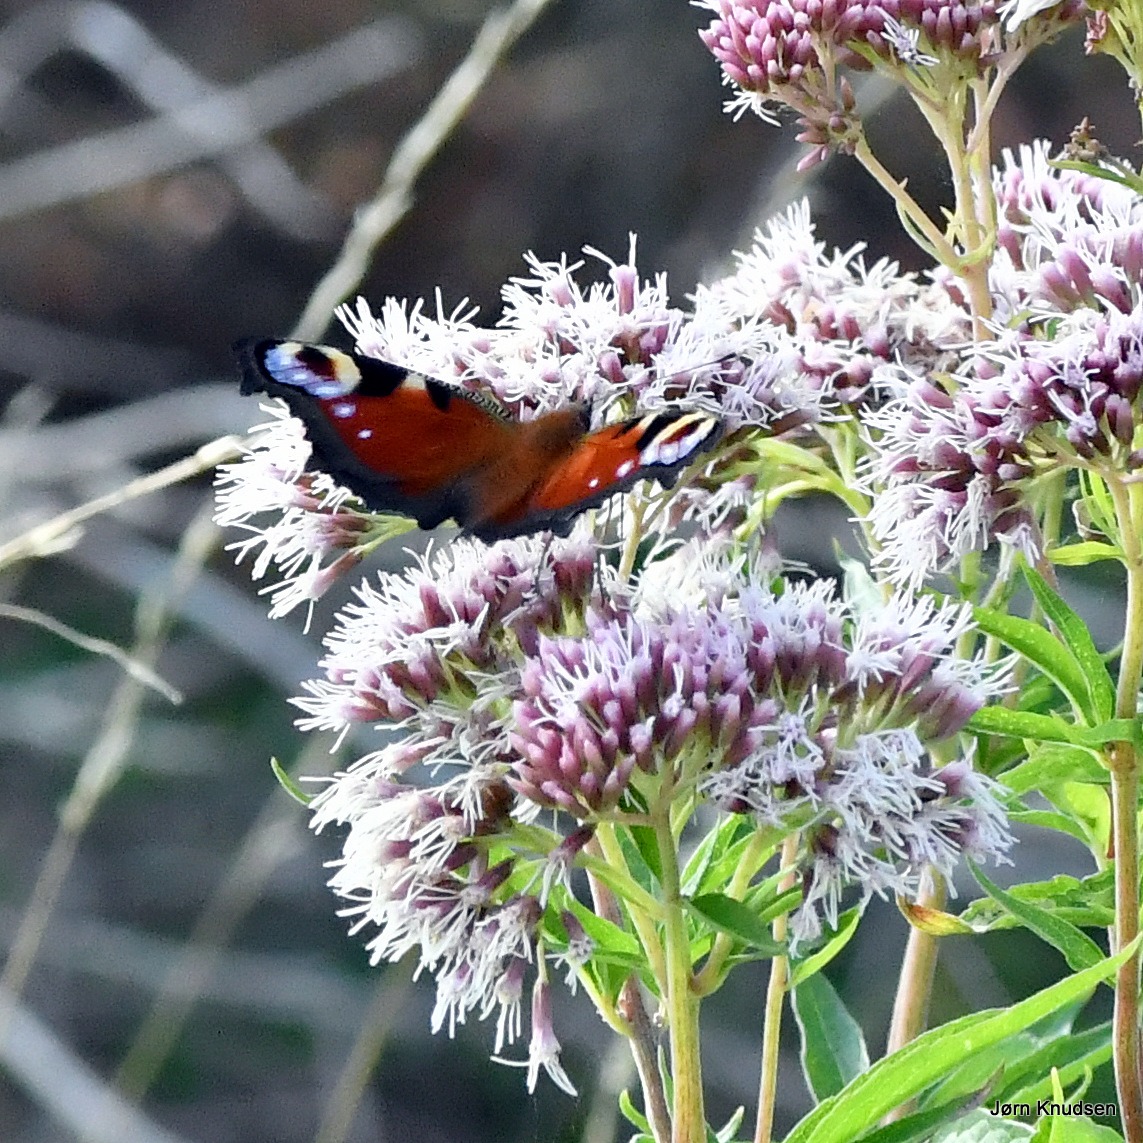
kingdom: Animalia
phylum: Arthropoda
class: Insecta
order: Lepidoptera
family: Nymphalidae
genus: Aglais
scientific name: Aglais io
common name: Dagpåfugleøje
